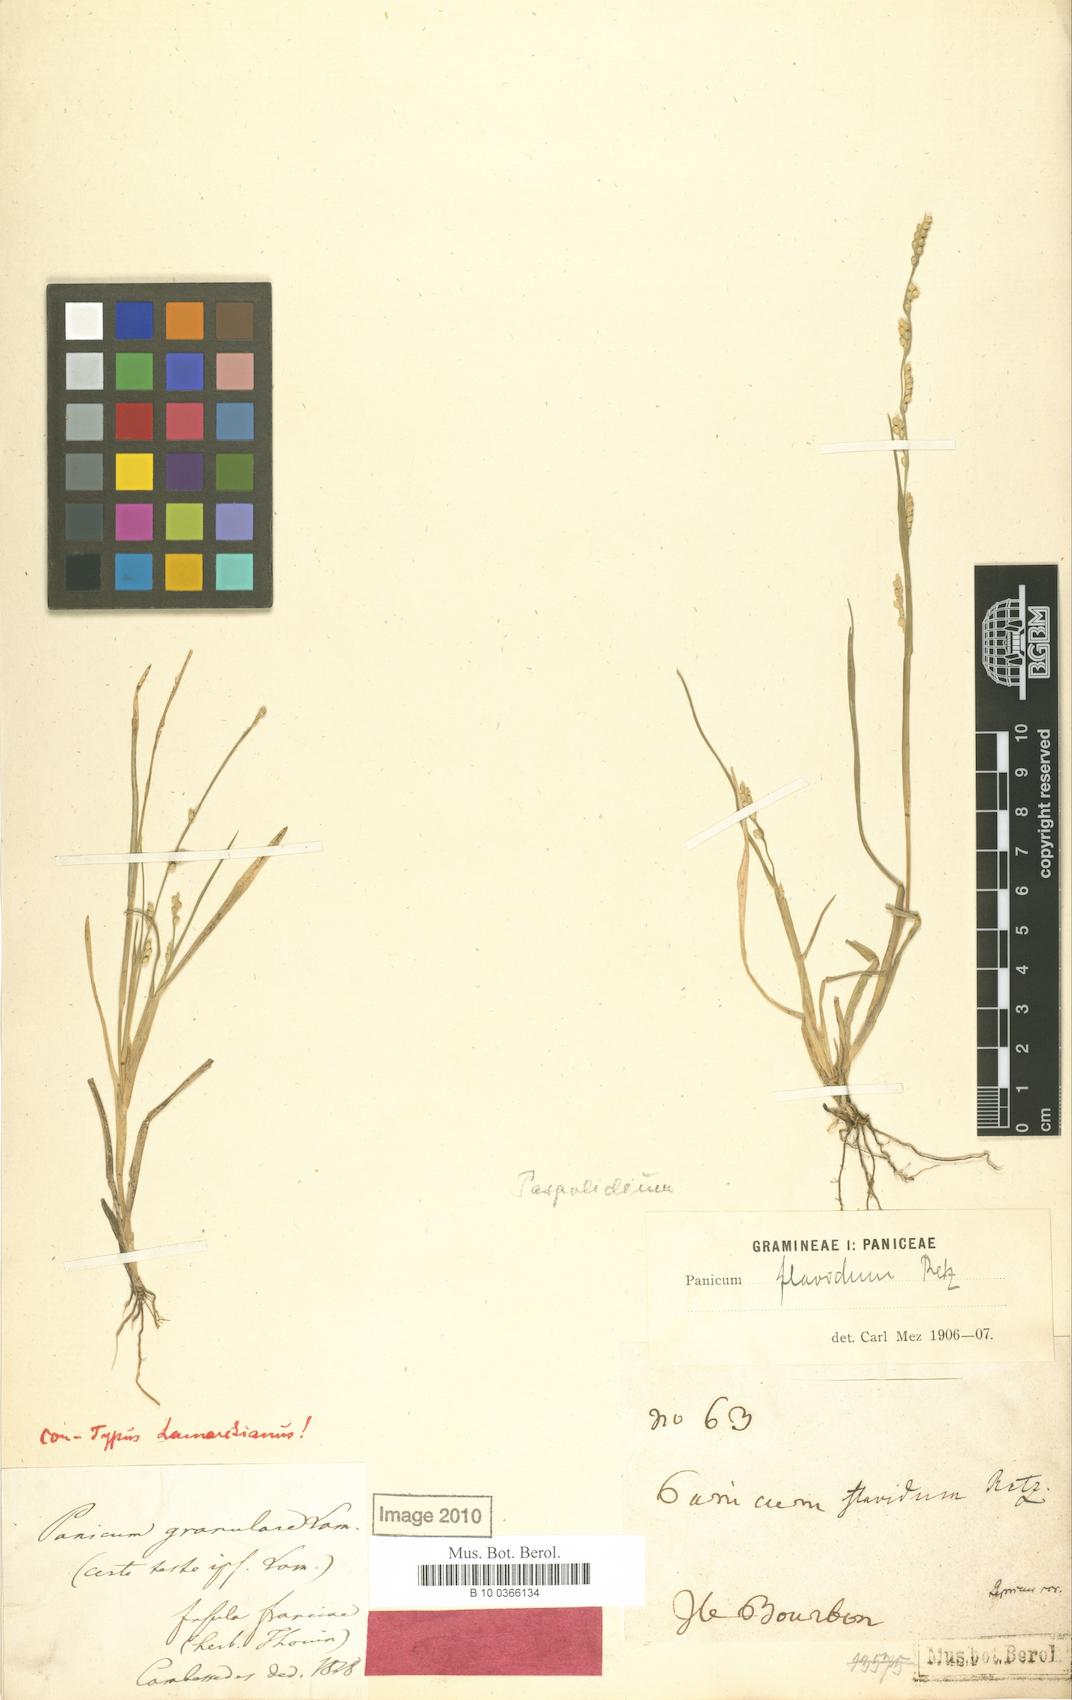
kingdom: Plantae
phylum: Tracheophyta
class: Liliopsida
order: Poales
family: Poaceae
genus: Setaria
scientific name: Setaria flavida
